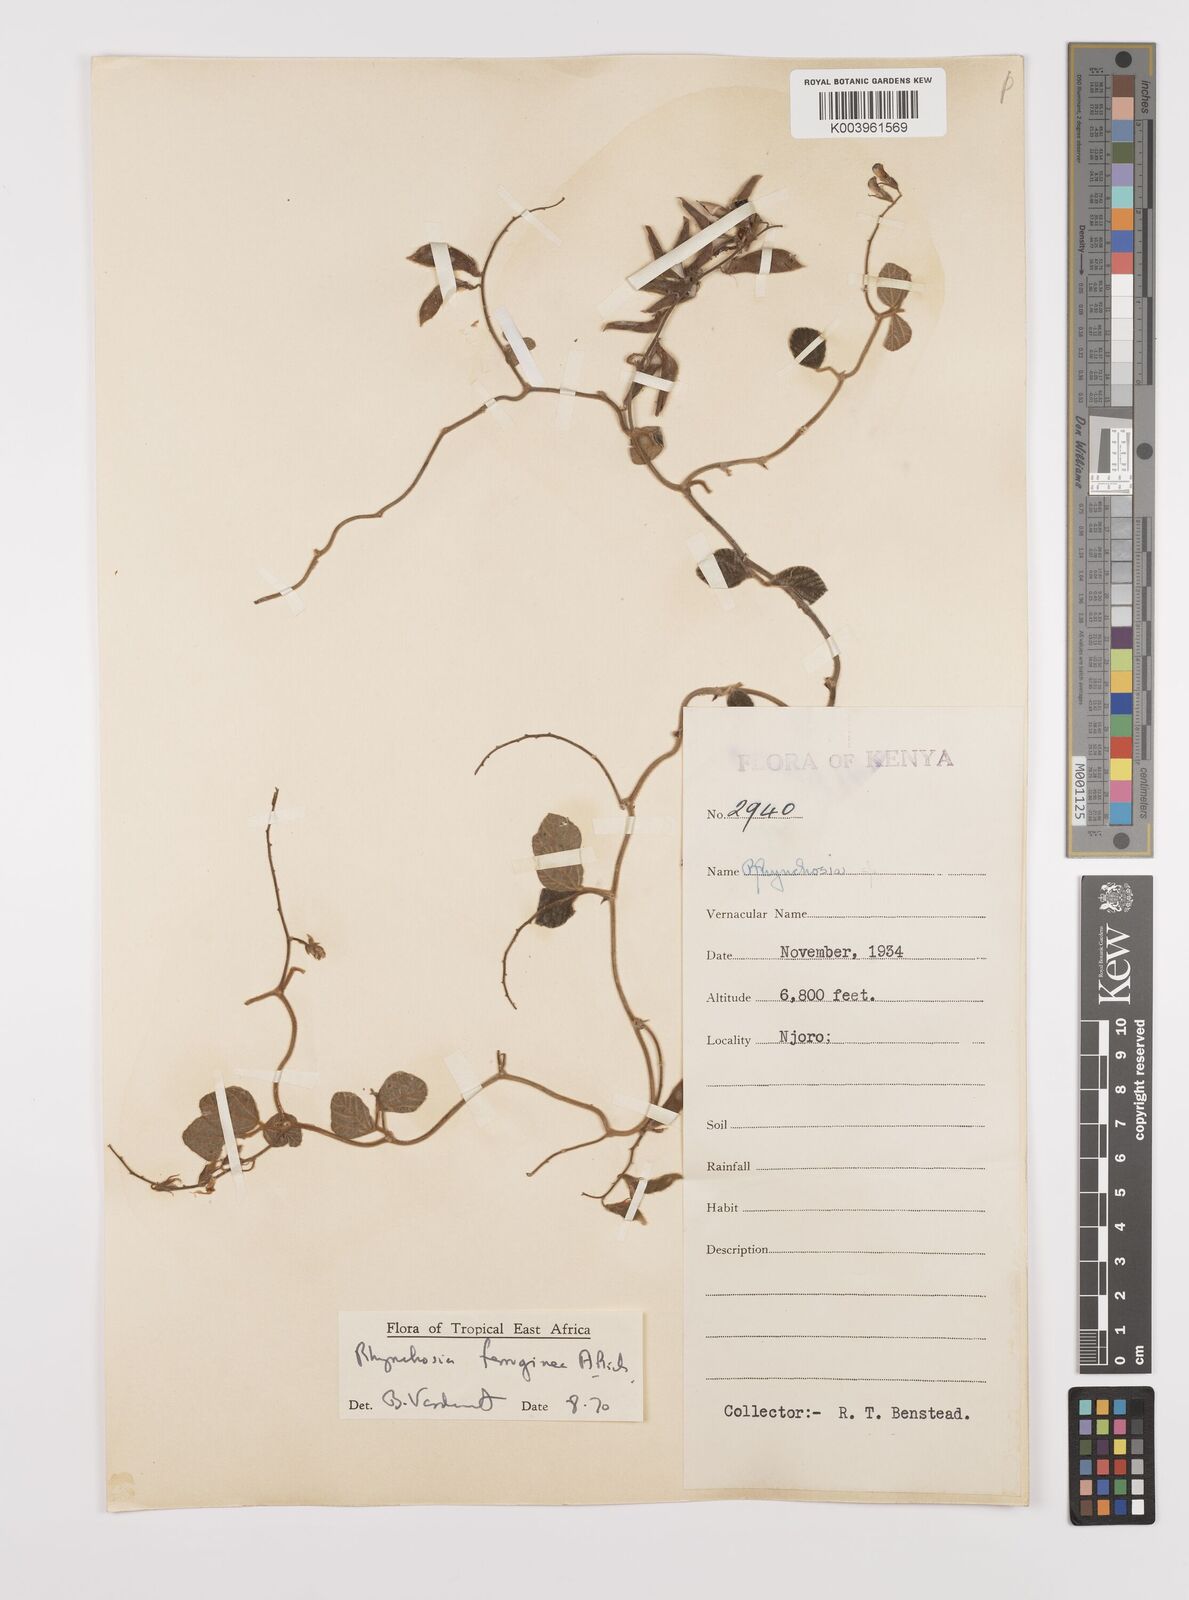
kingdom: Plantae
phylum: Tracheophyta
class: Magnoliopsida
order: Fabales
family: Fabaceae
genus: Rhynchosia
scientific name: Rhynchosia ferruginea
